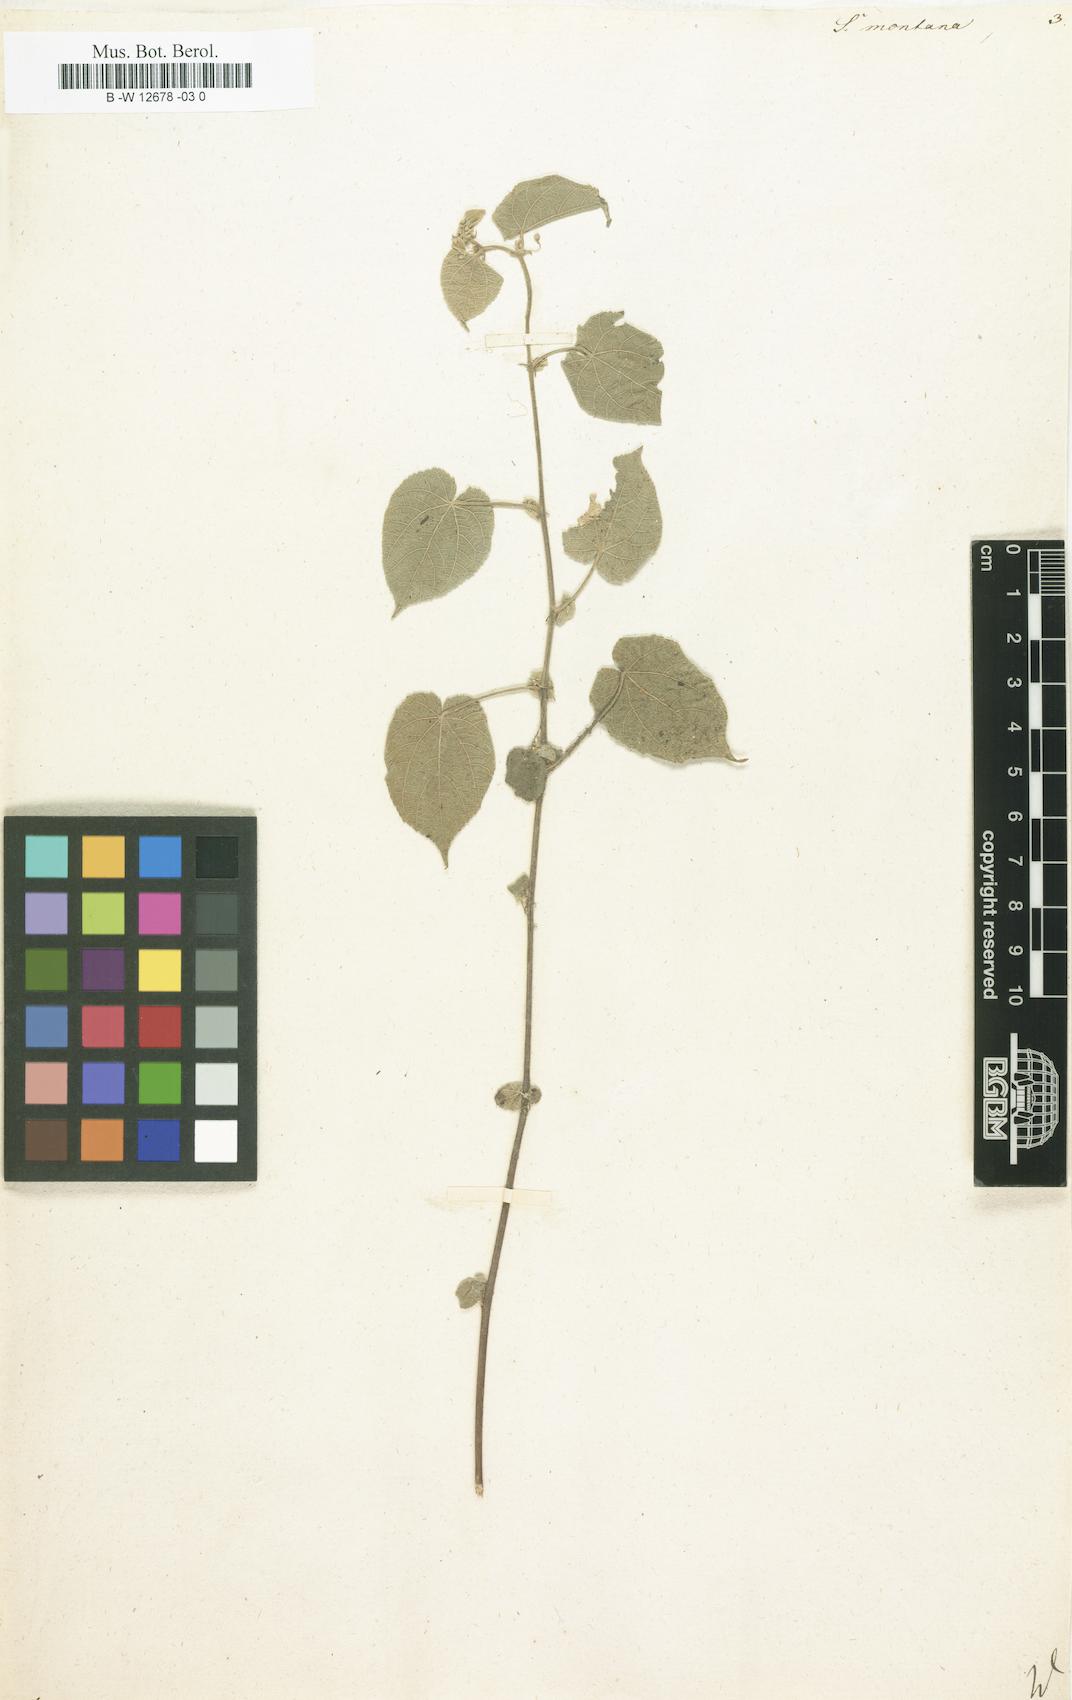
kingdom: Plantae
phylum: Tracheophyta
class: Magnoliopsida
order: Malvales
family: Malvaceae
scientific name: Malvaceae
